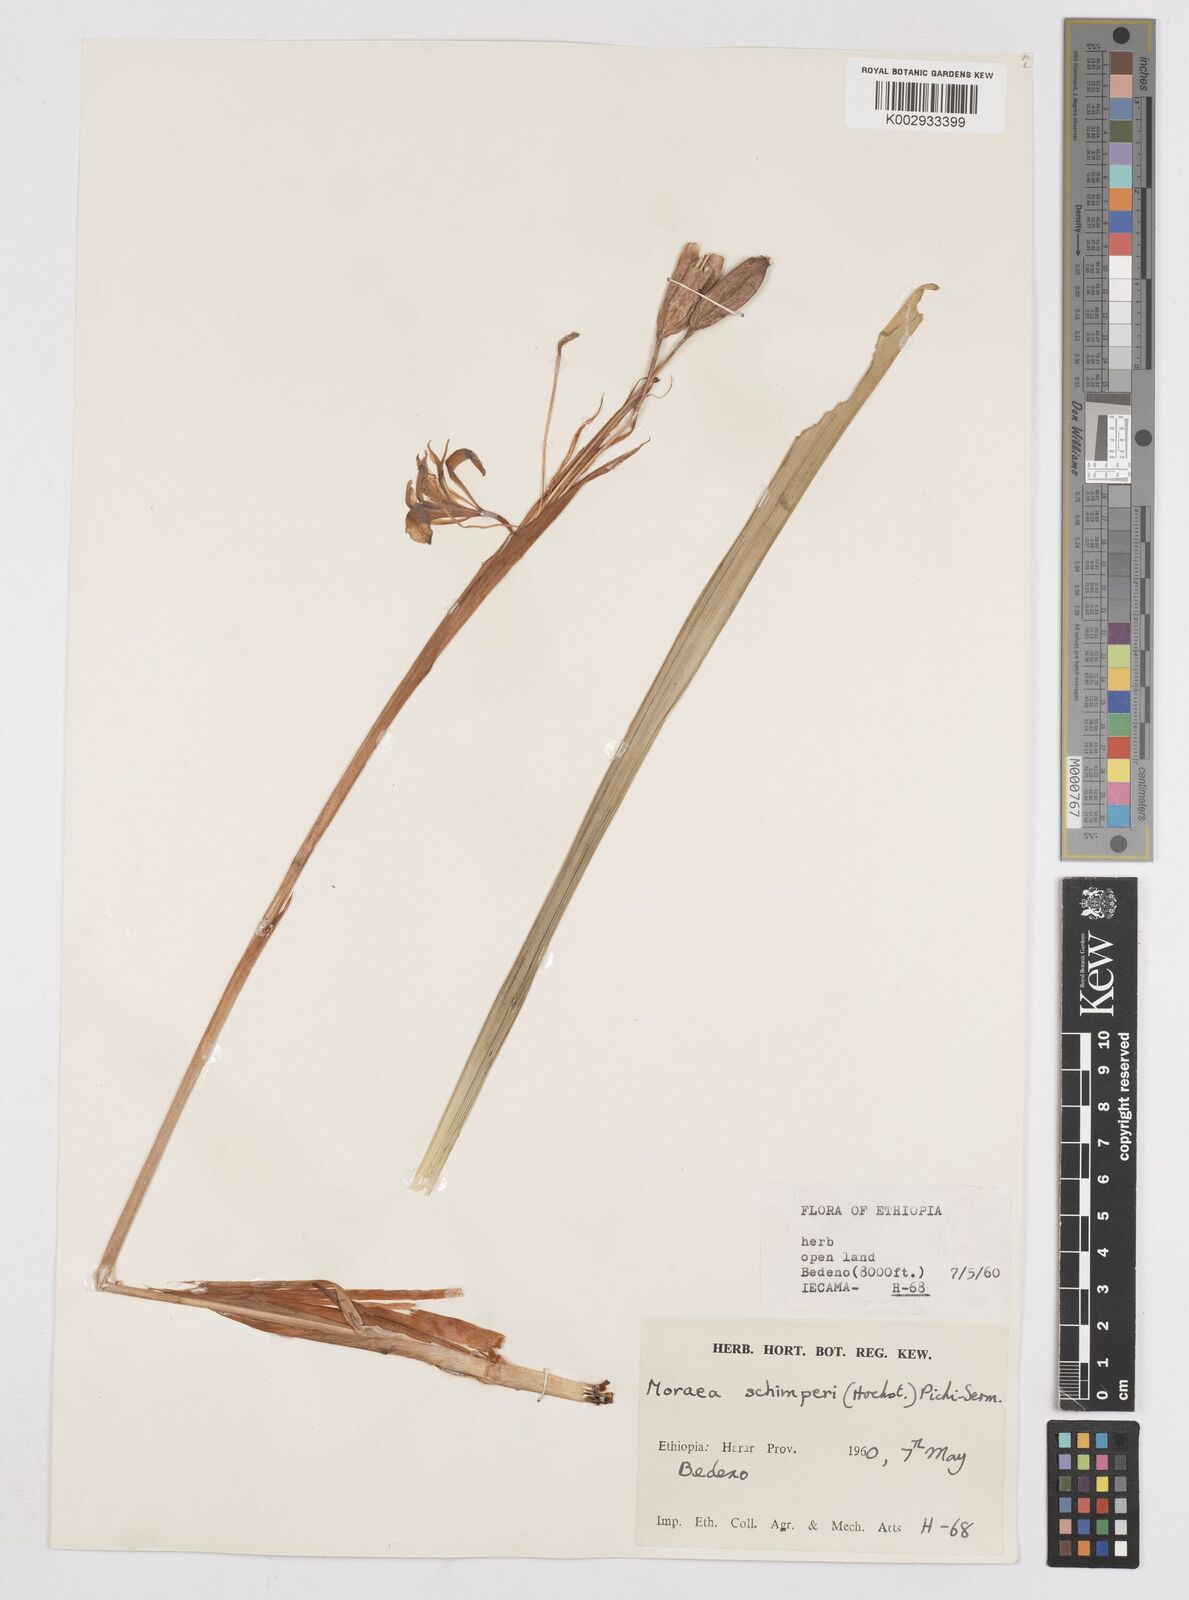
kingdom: Plantae
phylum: Tracheophyta
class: Liliopsida
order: Asparagales
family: Iridaceae
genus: Moraea
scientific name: Moraea schimperi
